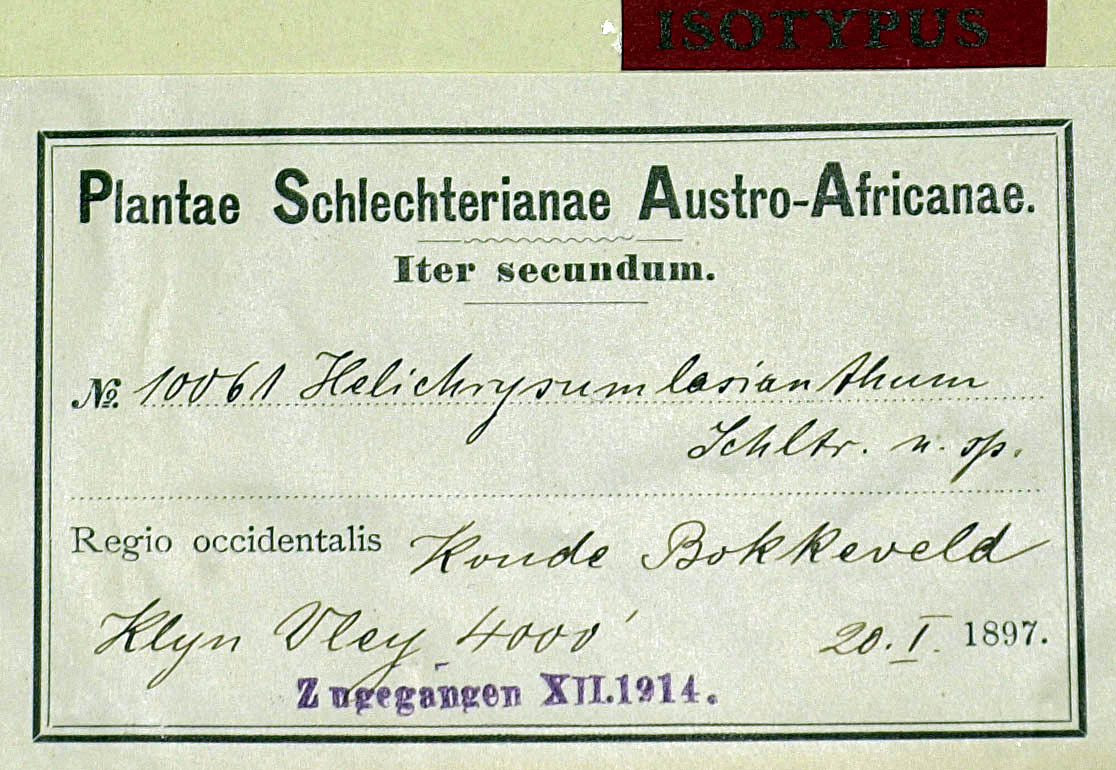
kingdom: Plantae
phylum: Tracheophyta
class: Magnoliopsida
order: Asterales
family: Asteraceae
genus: Vellereophyton
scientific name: Vellereophyton lasianthum
